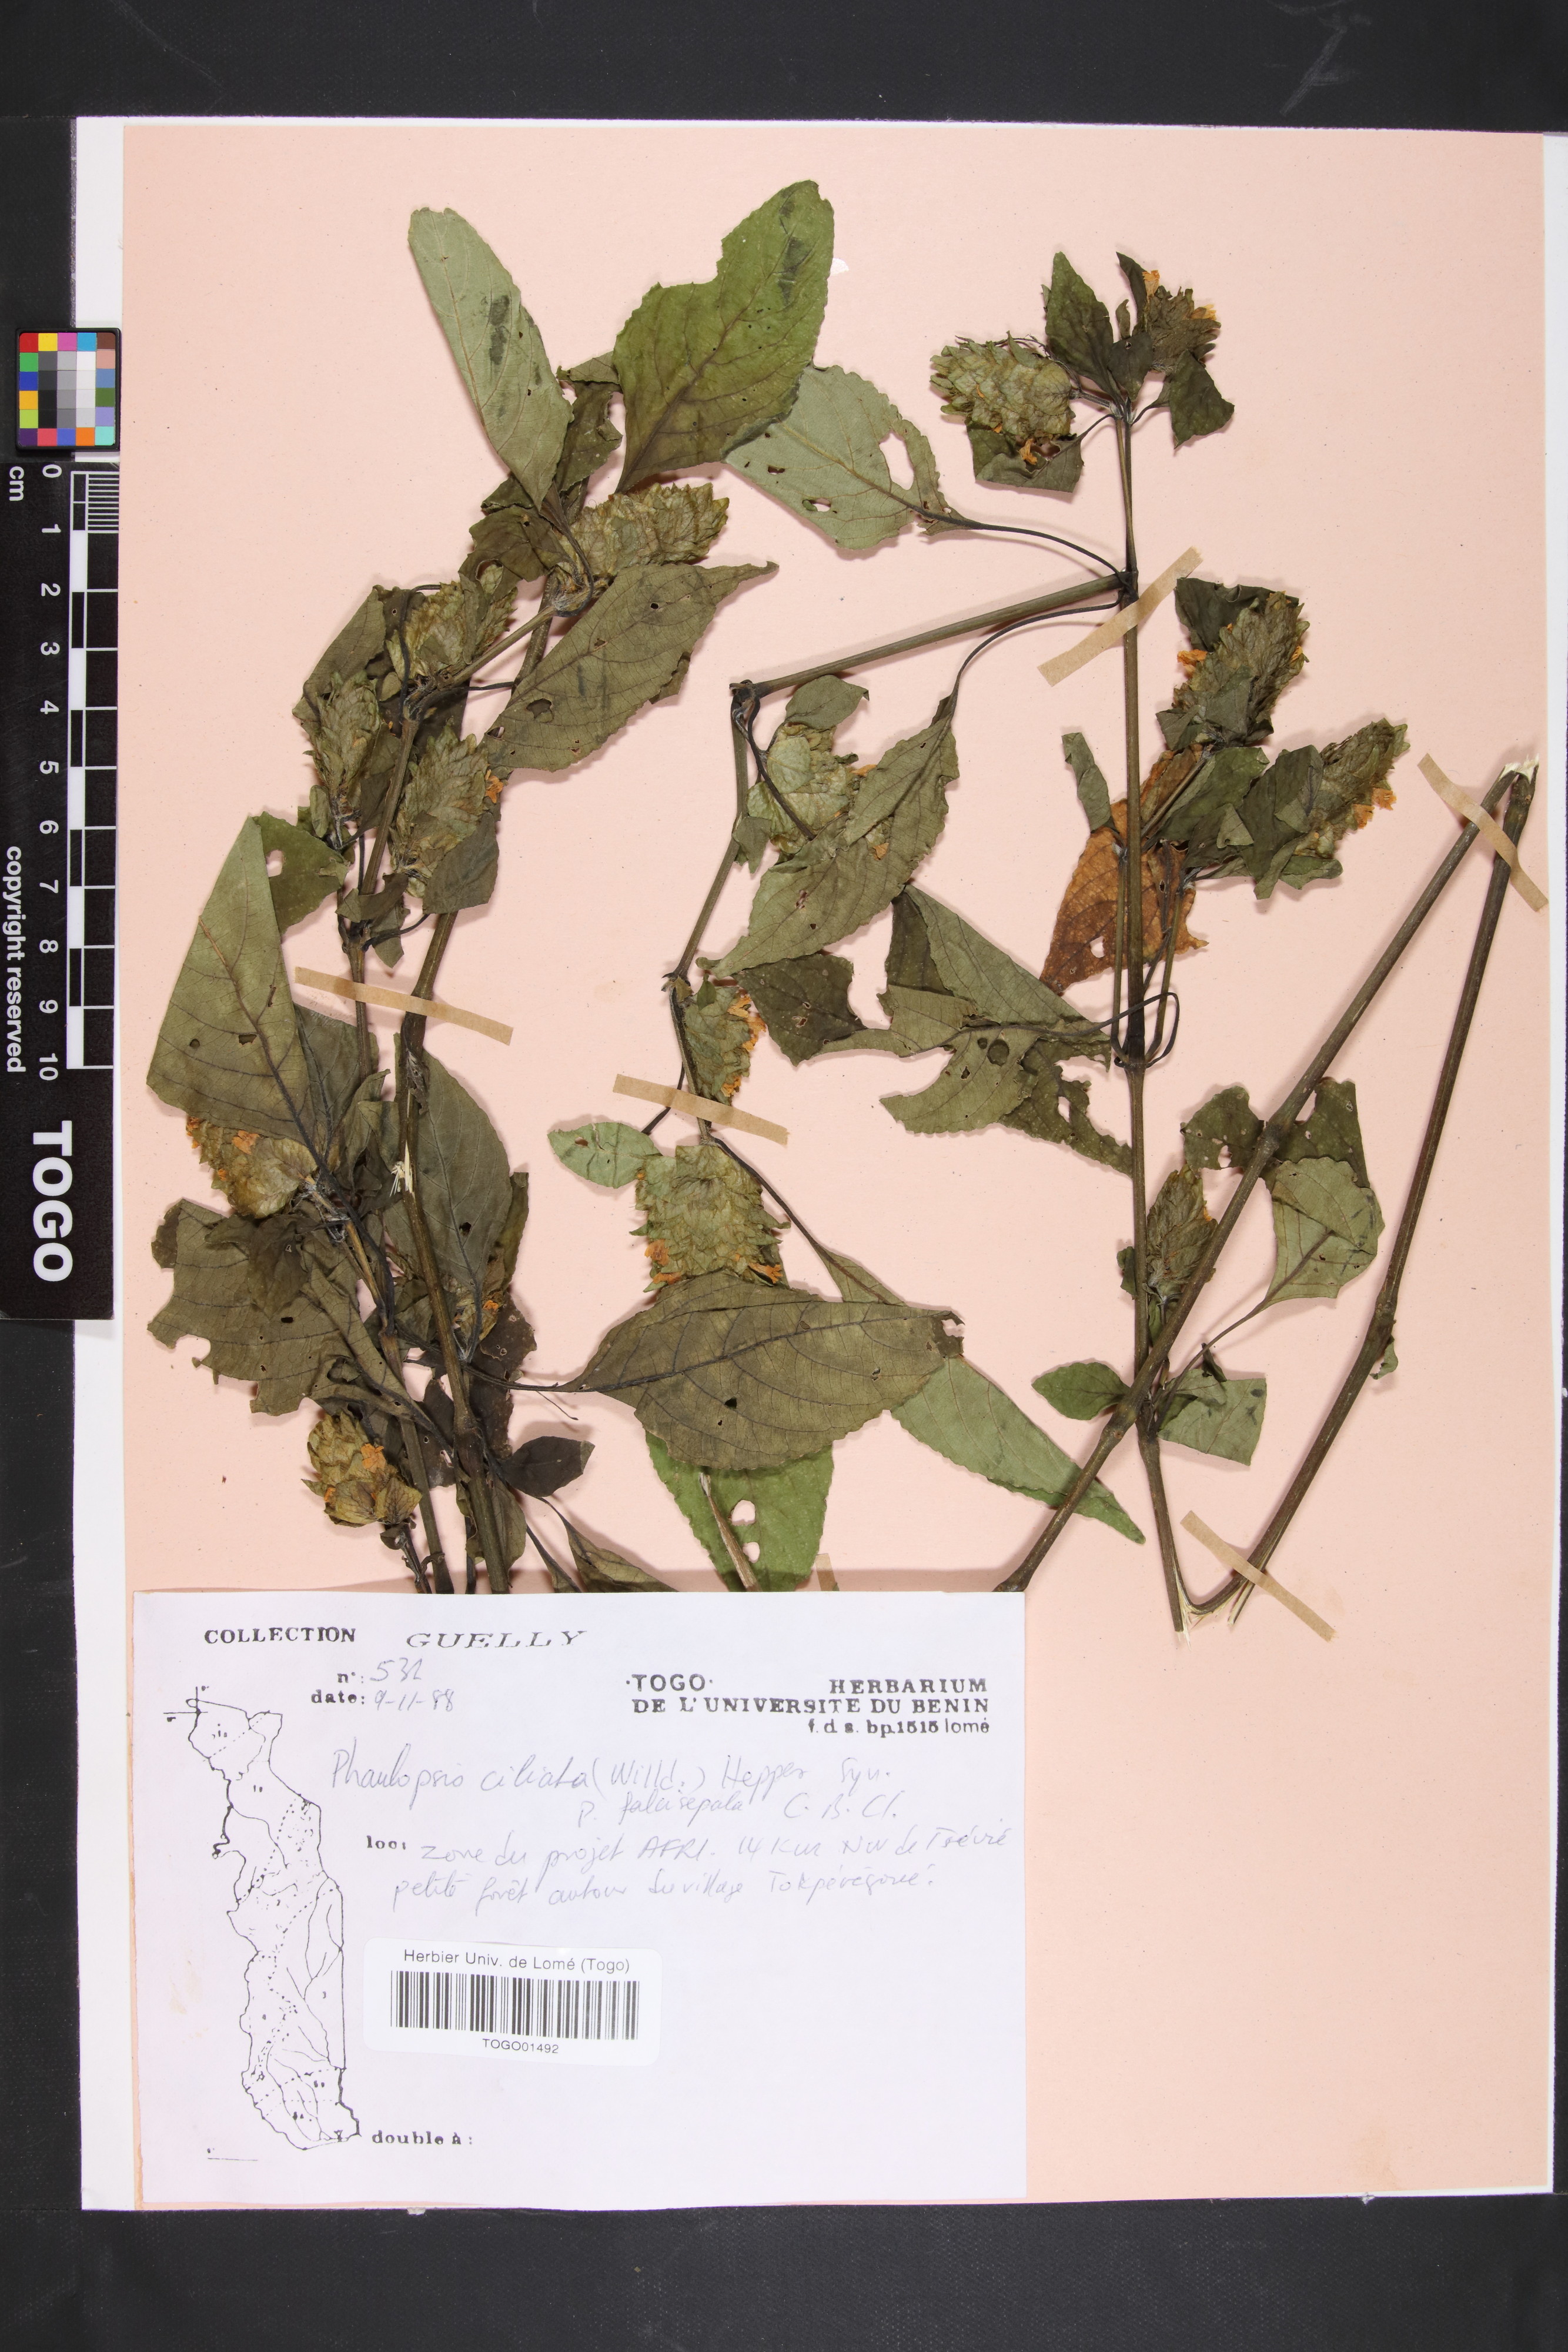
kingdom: Plantae
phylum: Tracheophyta
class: Magnoliopsida
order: Lamiales
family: Acanthaceae
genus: Phaulopsis
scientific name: Phaulopsis ciliata
